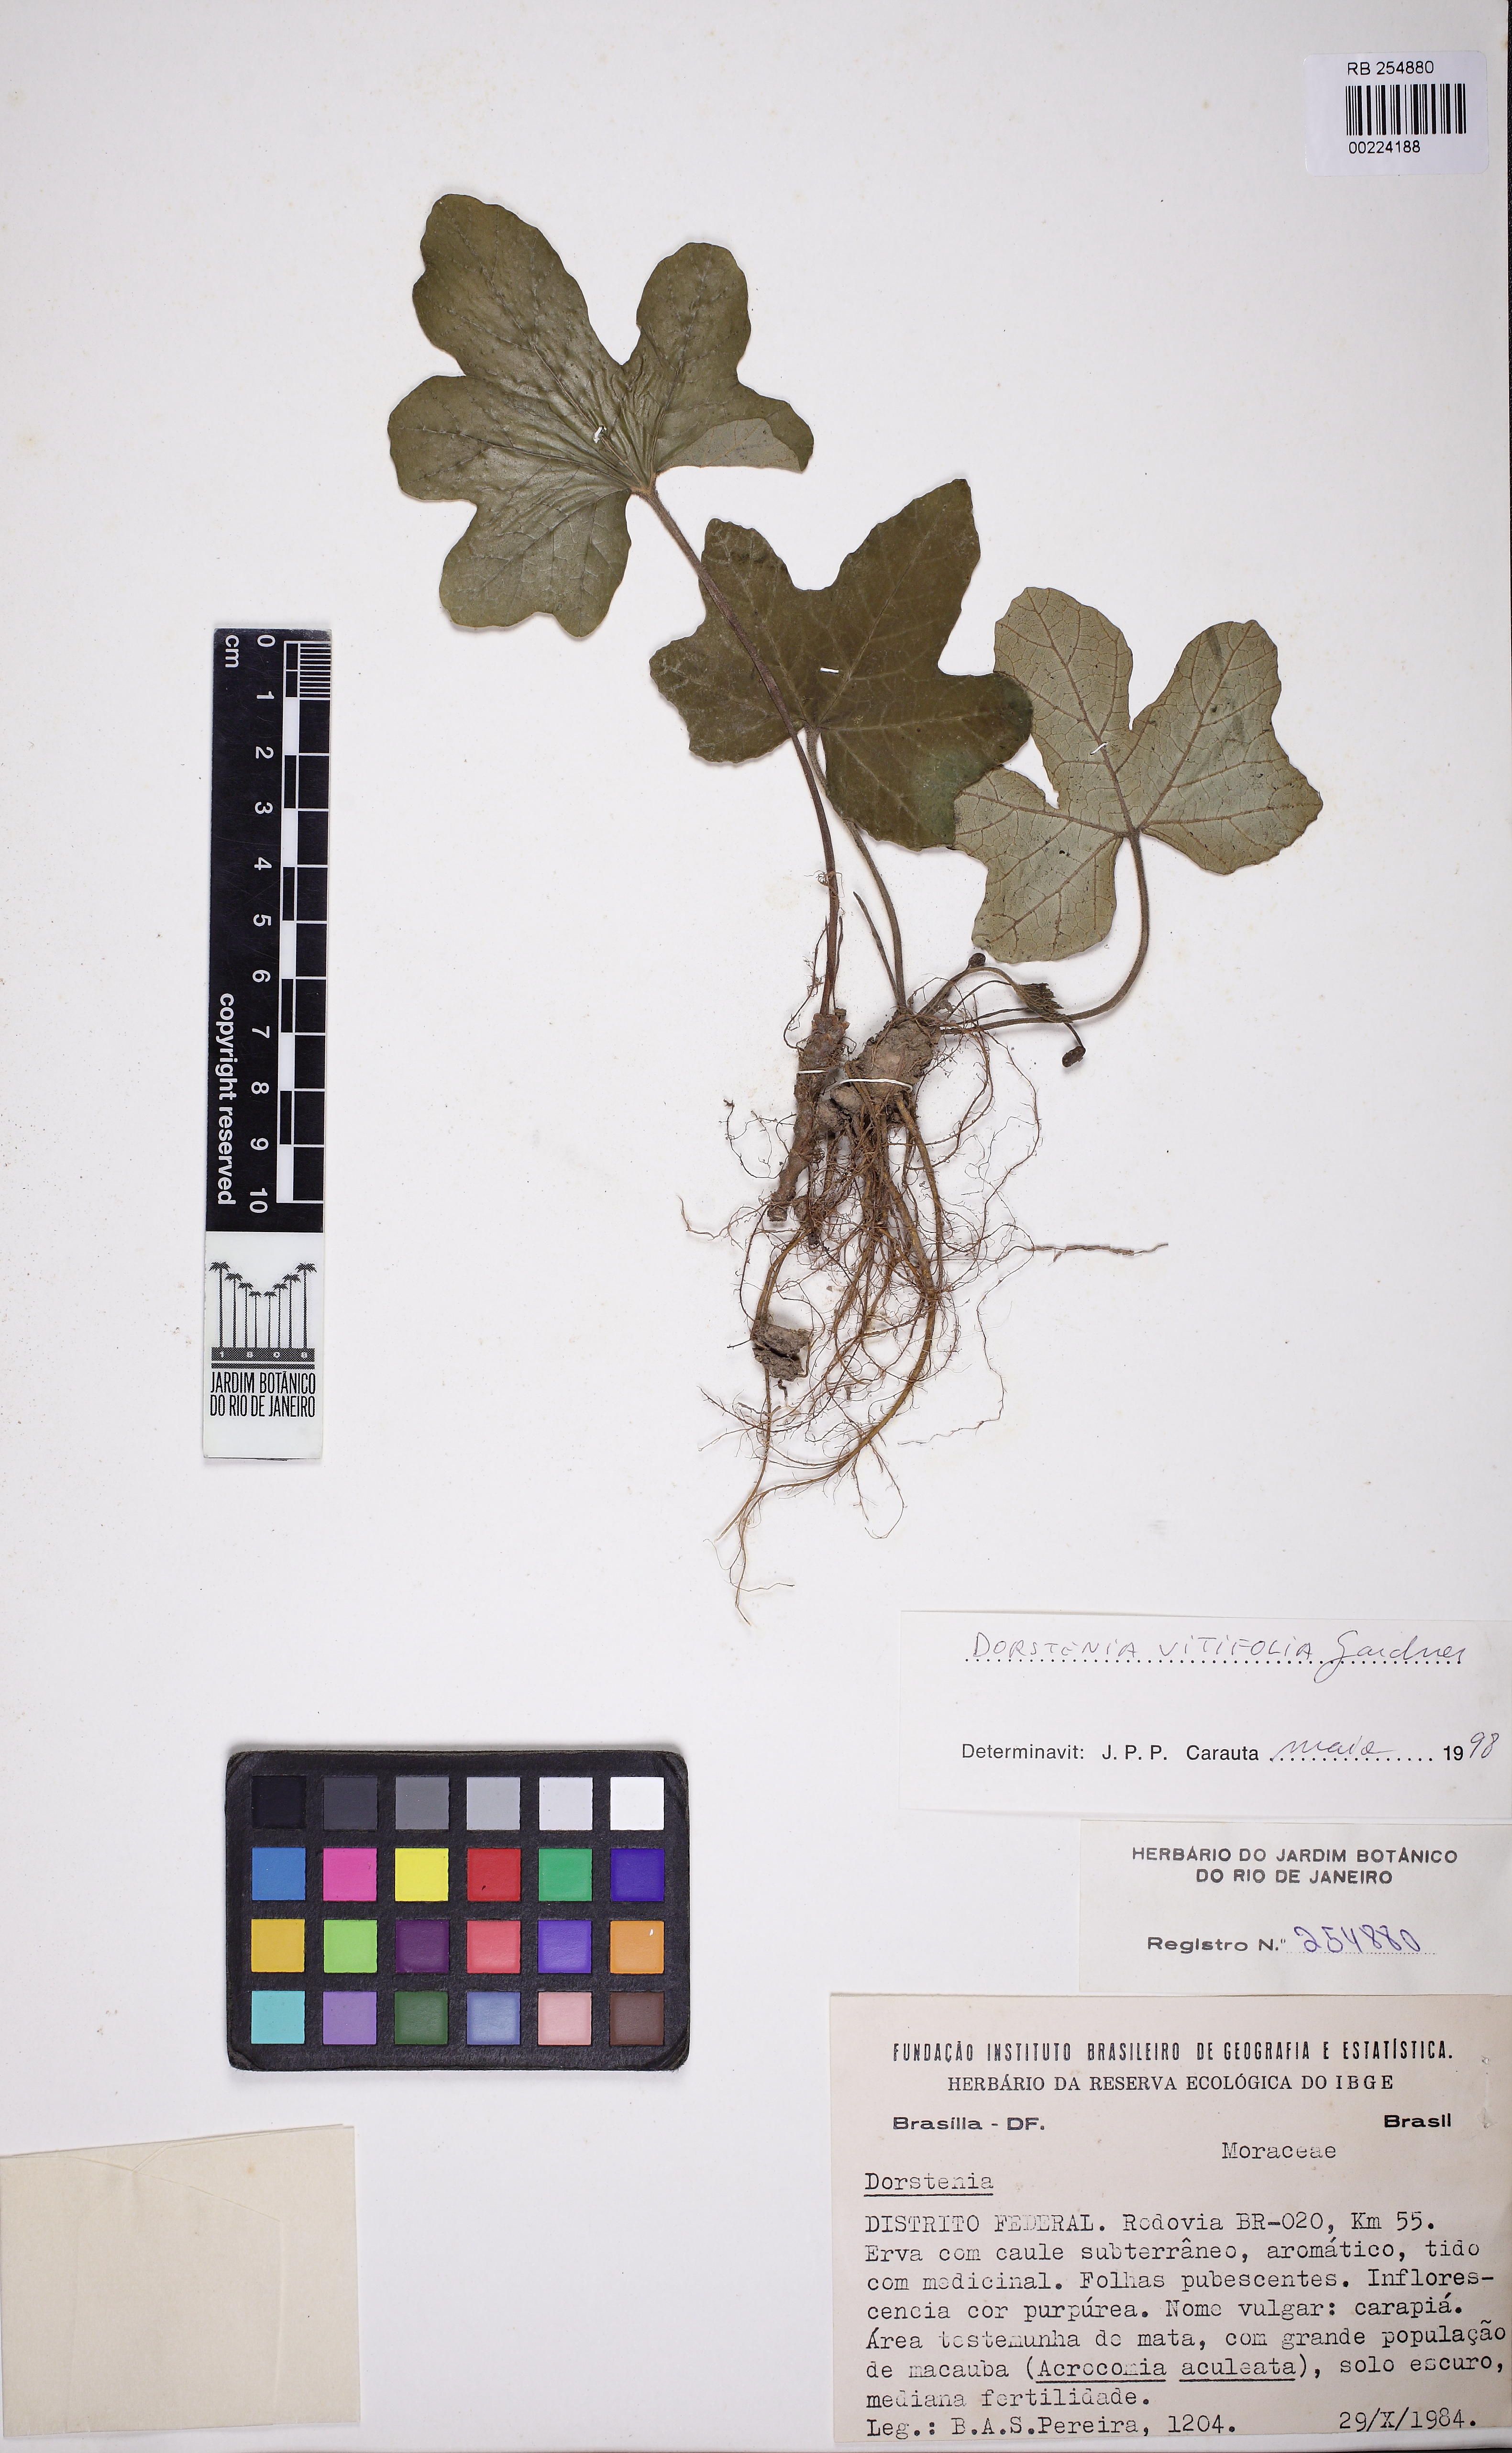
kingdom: Plantae
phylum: Tracheophyta
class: Magnoliopsida
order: Rosales
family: Moraceae
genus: Dorstenia
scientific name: Dorstenia cayapia
